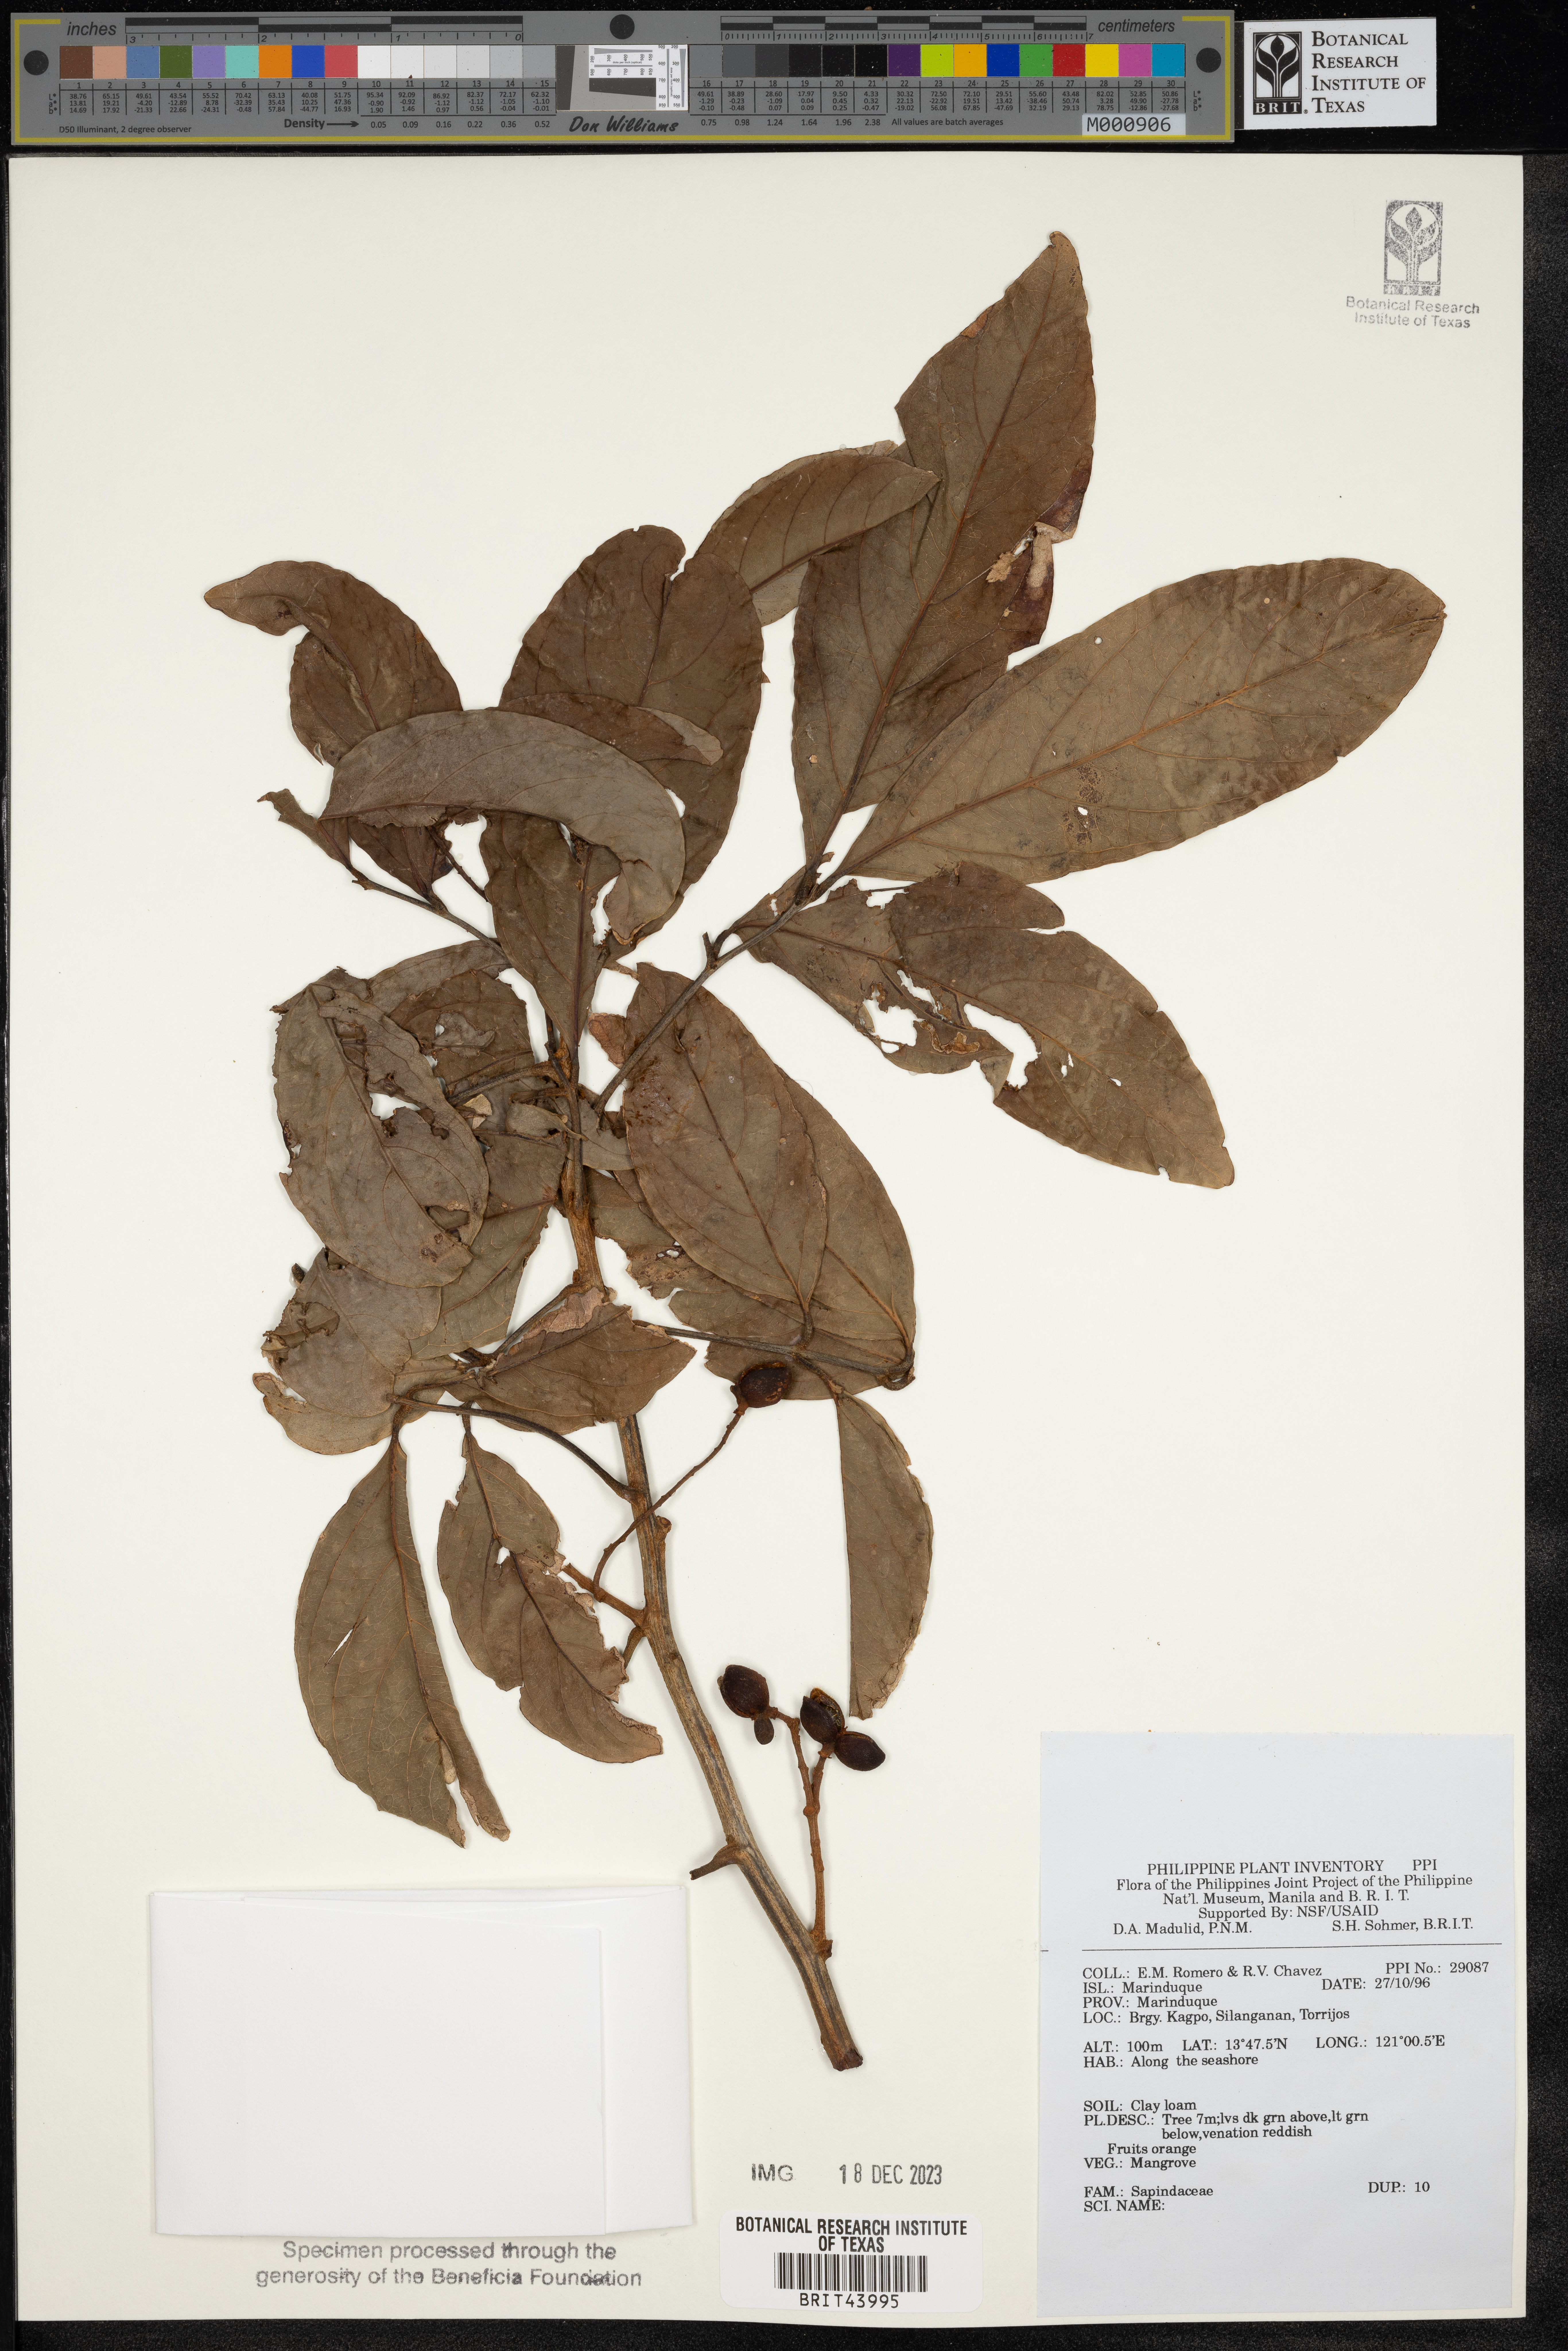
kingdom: Plantae
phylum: Tracheophyta
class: Magnoliopsida
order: Sapindales
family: Sapindaceae
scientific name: Sapindaceae
